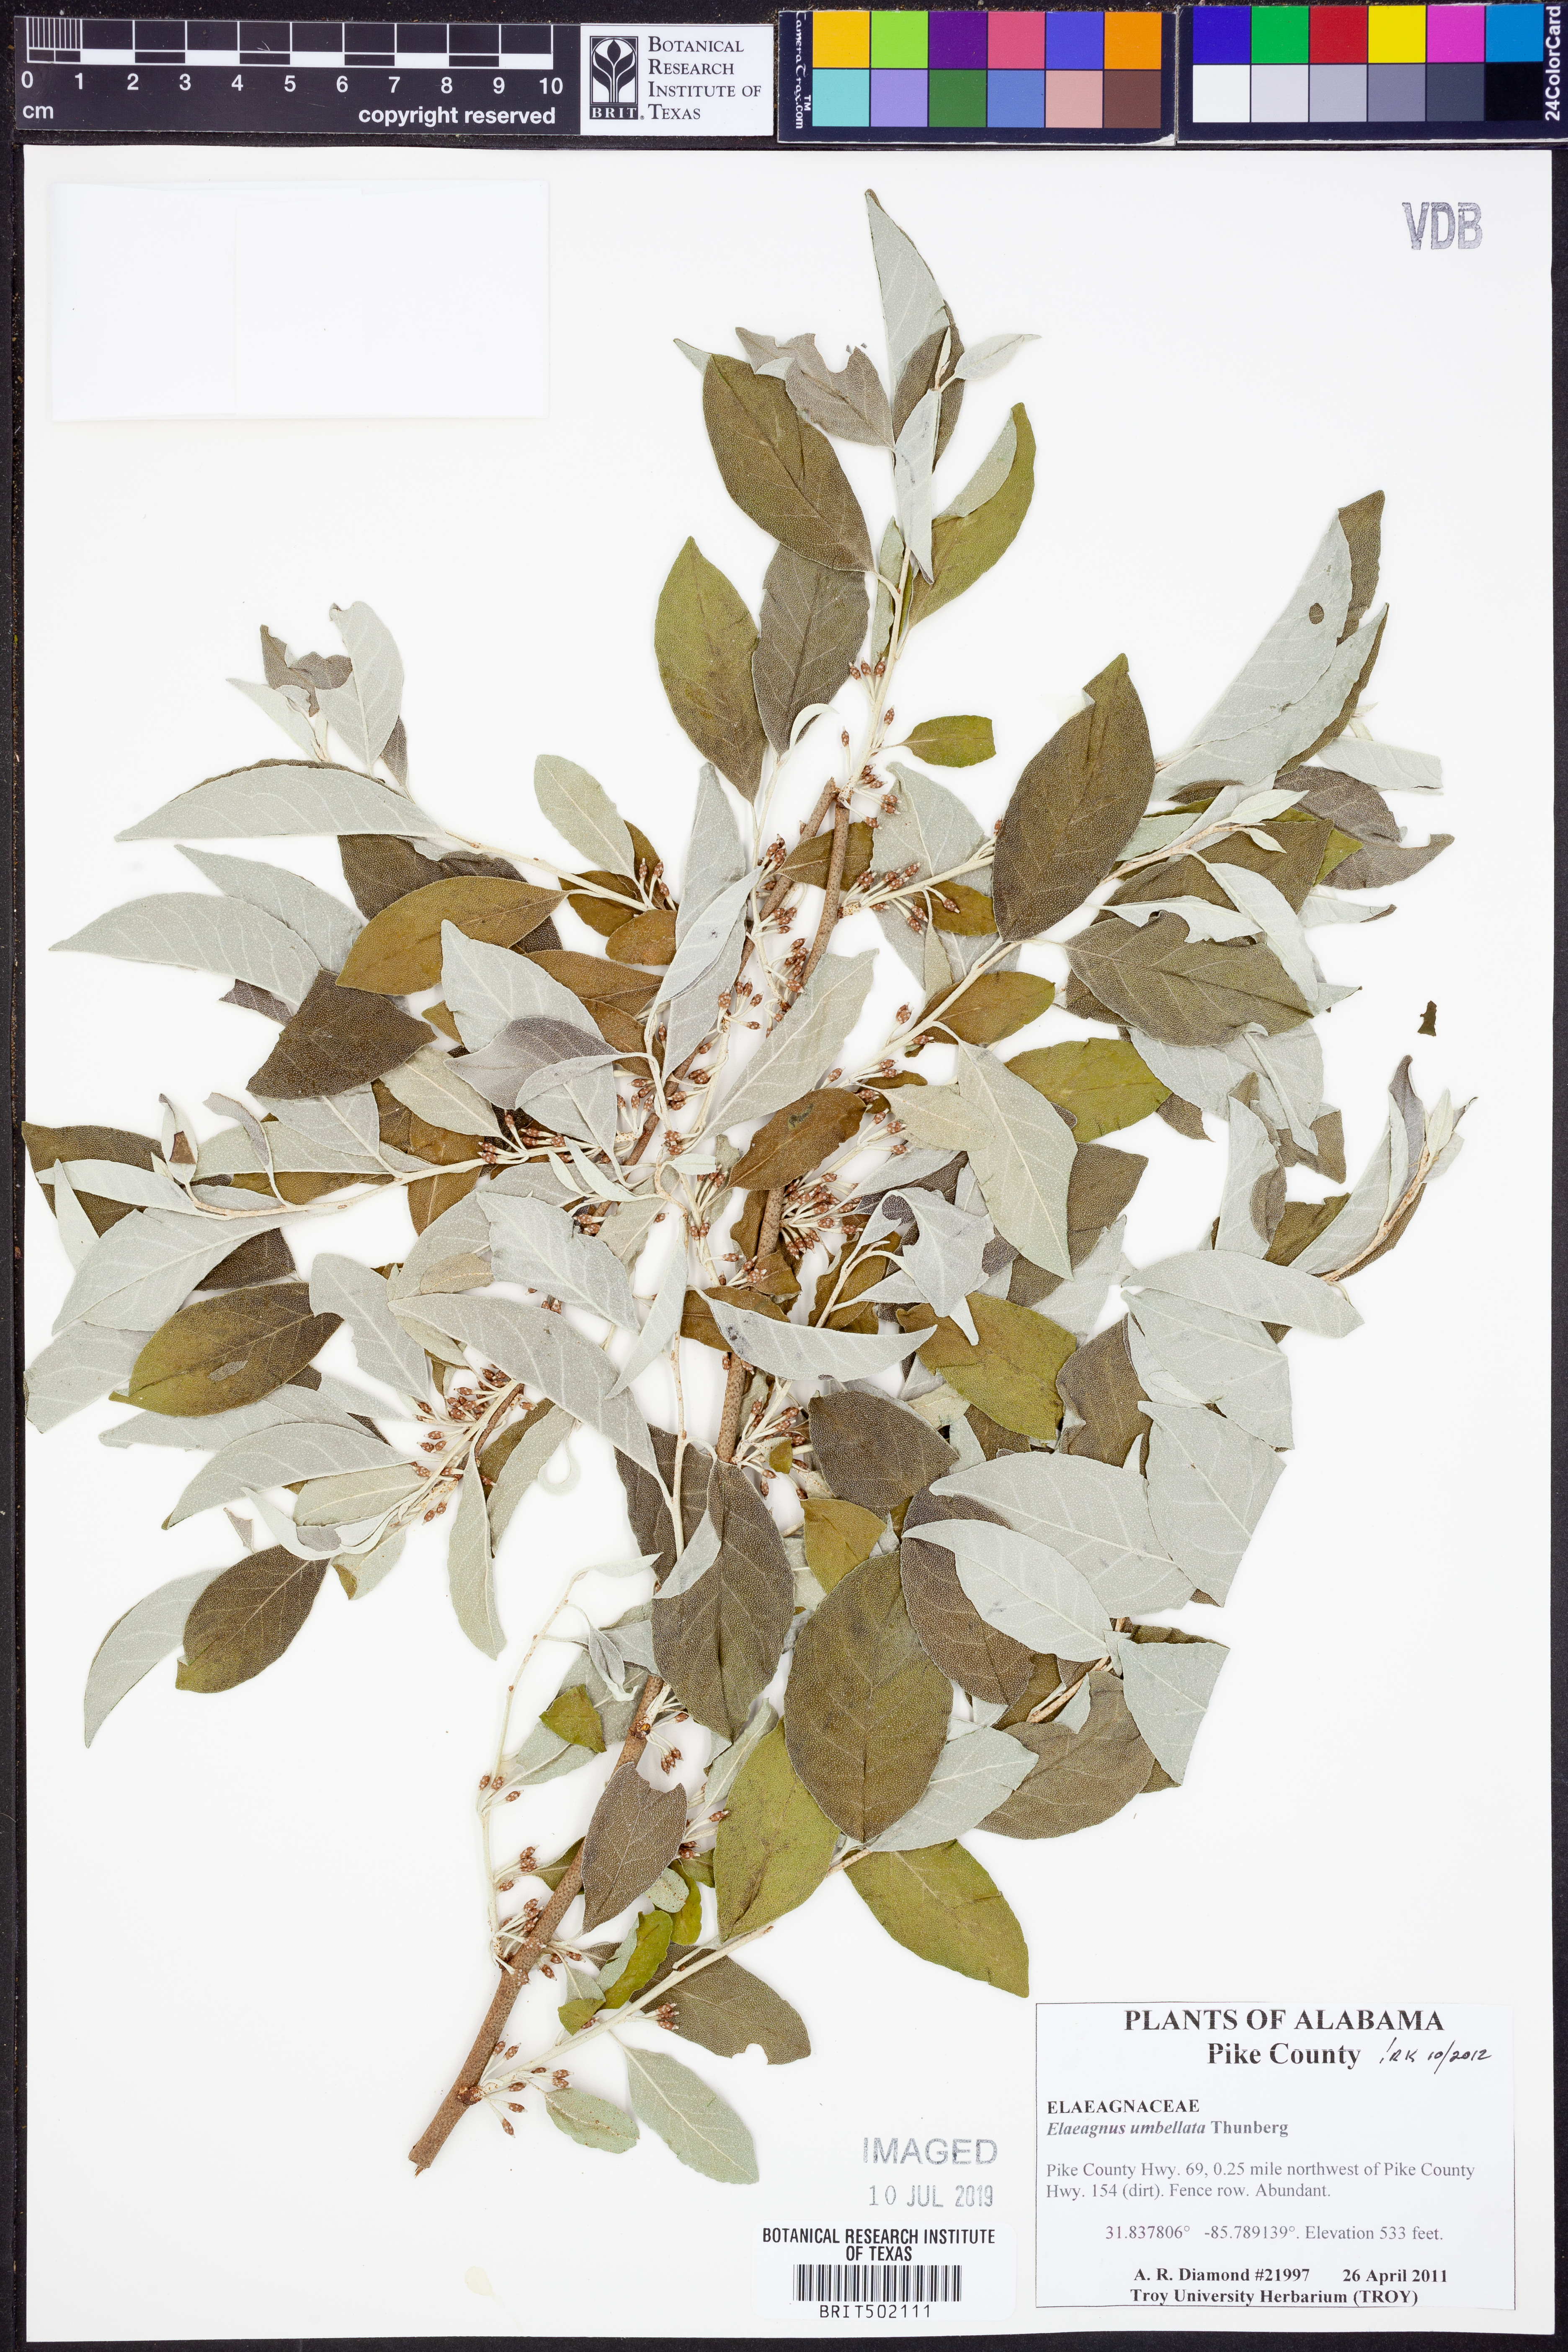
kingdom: Plantae
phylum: Tracheophyta
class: Magnoliopsida
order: Rosales
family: Elaeagnaceae
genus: Elaeagnus
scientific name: Elaeagnus umbellata
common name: Autumn olive
